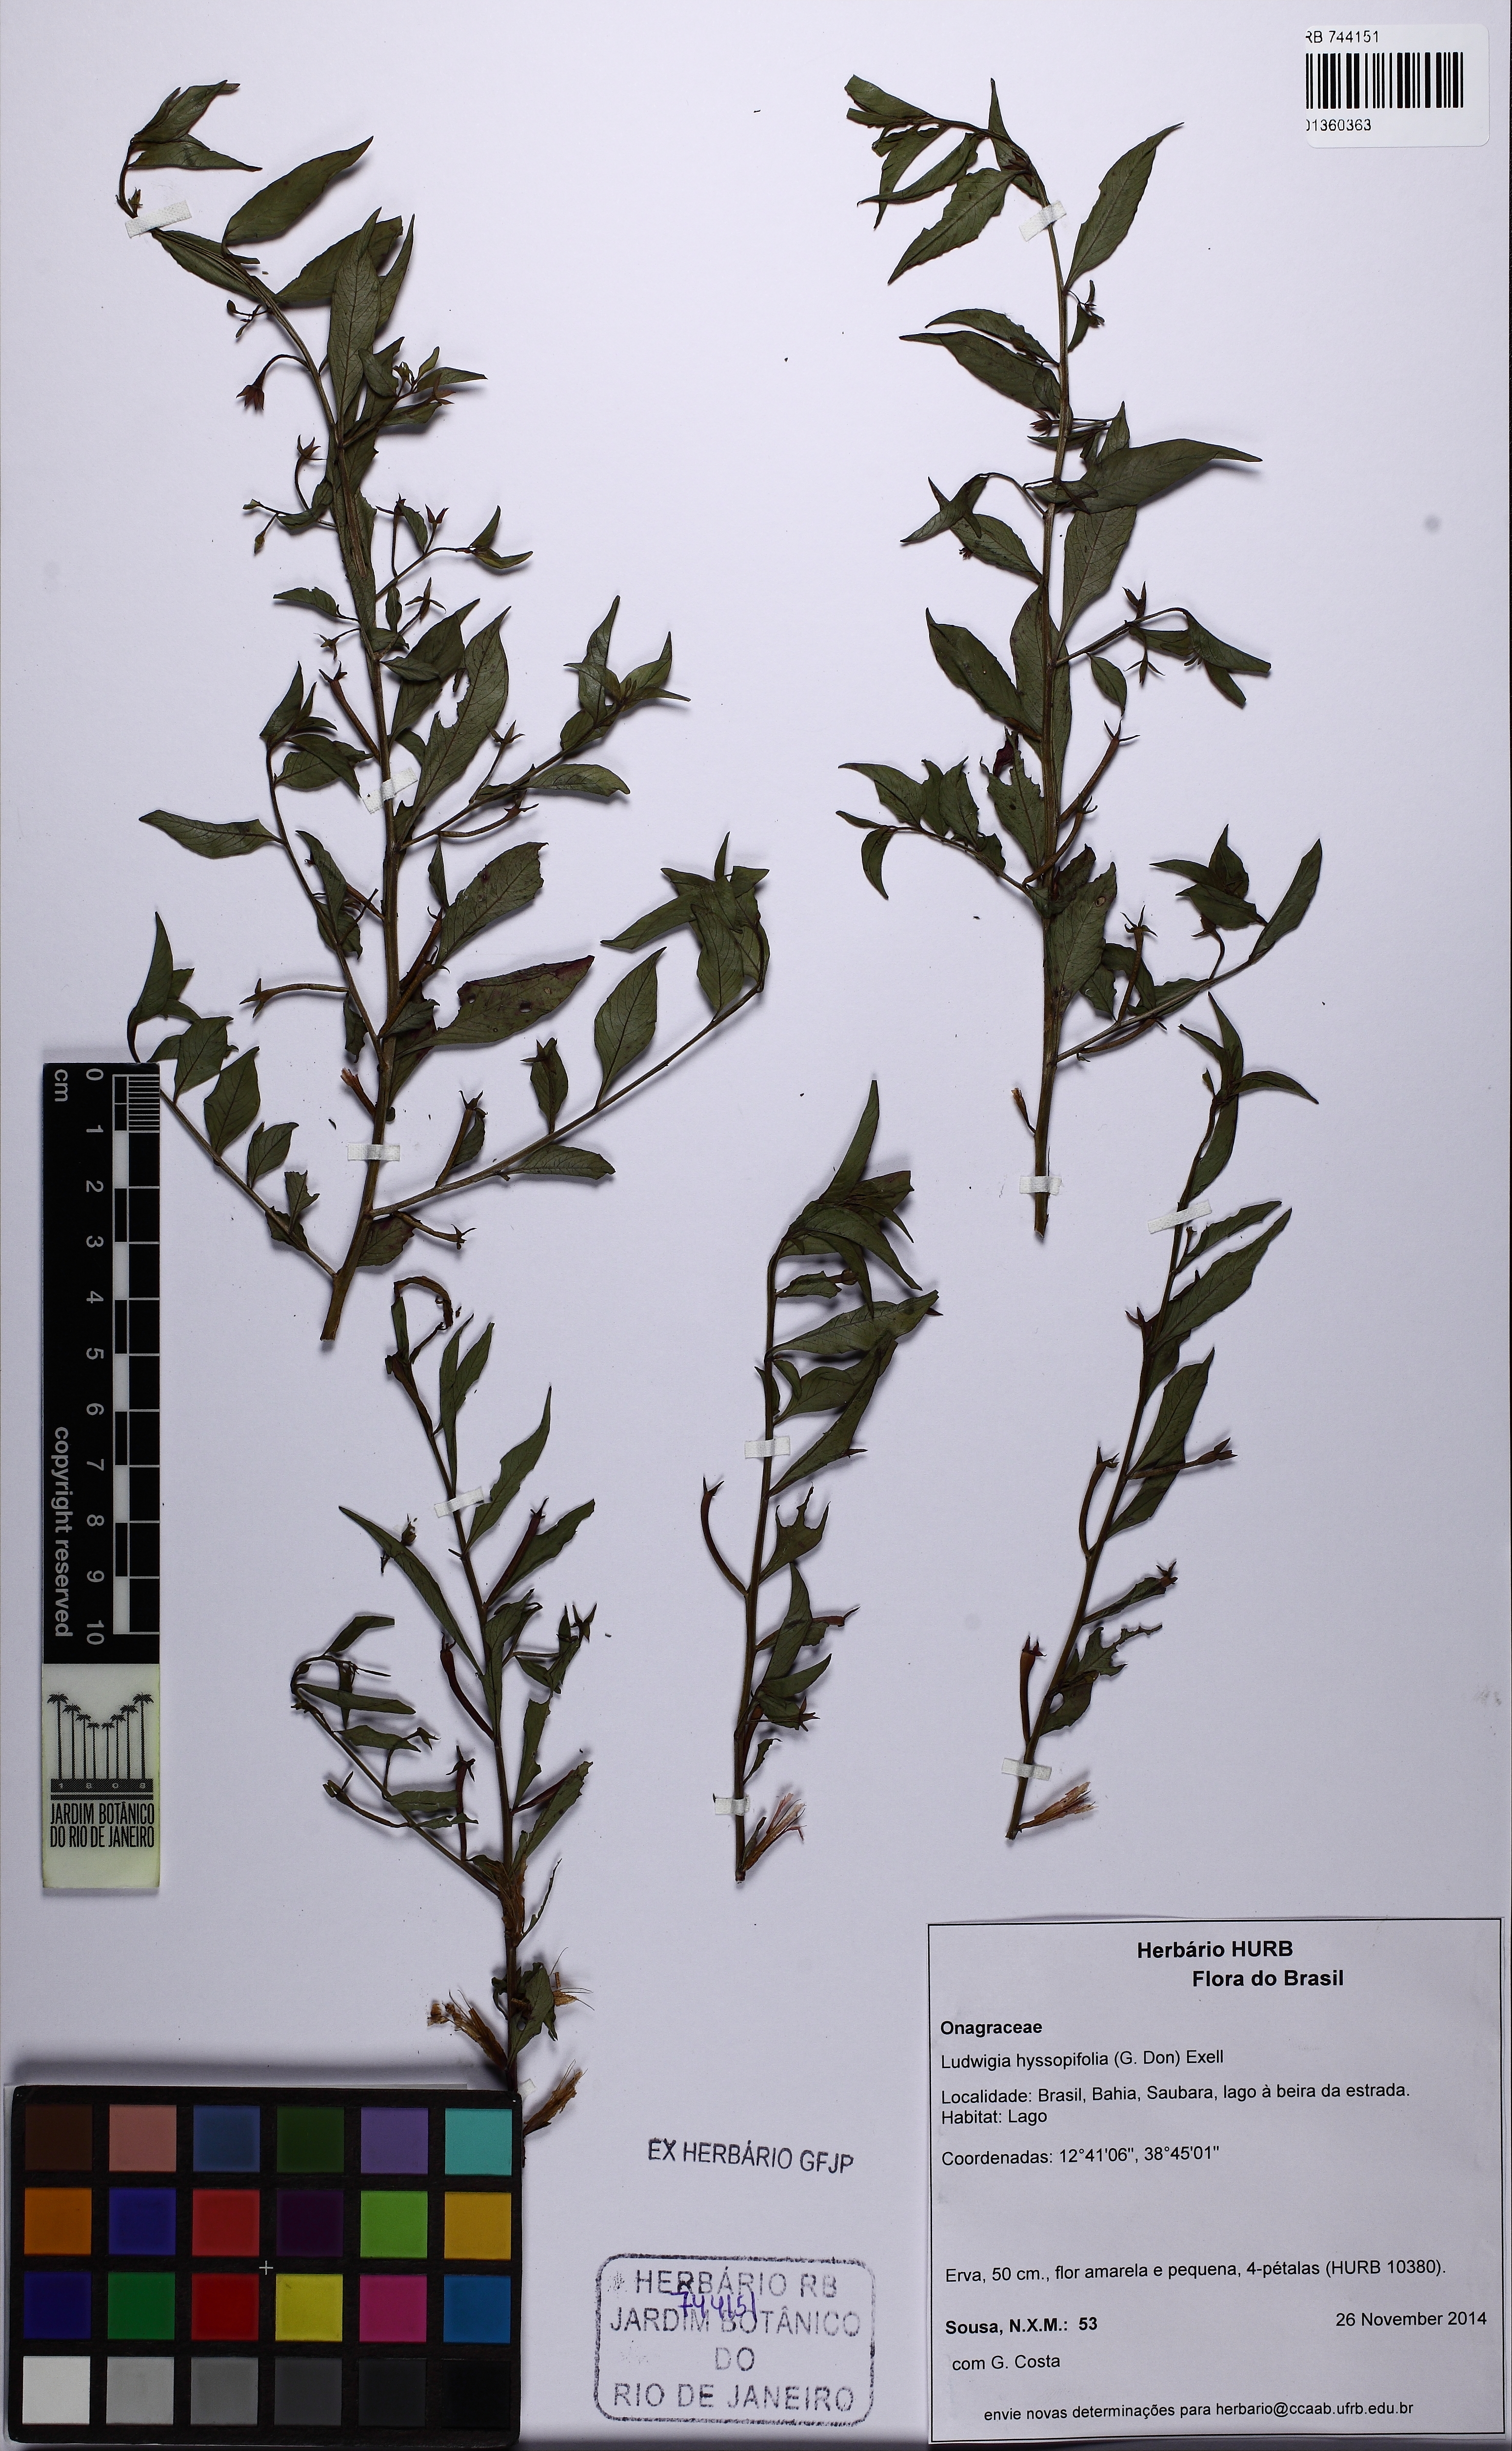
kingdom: Plantae
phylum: Tracheophyta
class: Magnoliopsida
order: Myrtales
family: Onagraceae
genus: Ludwigia
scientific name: Ludwigia hyssopifolia
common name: Linear leaf water primrose
